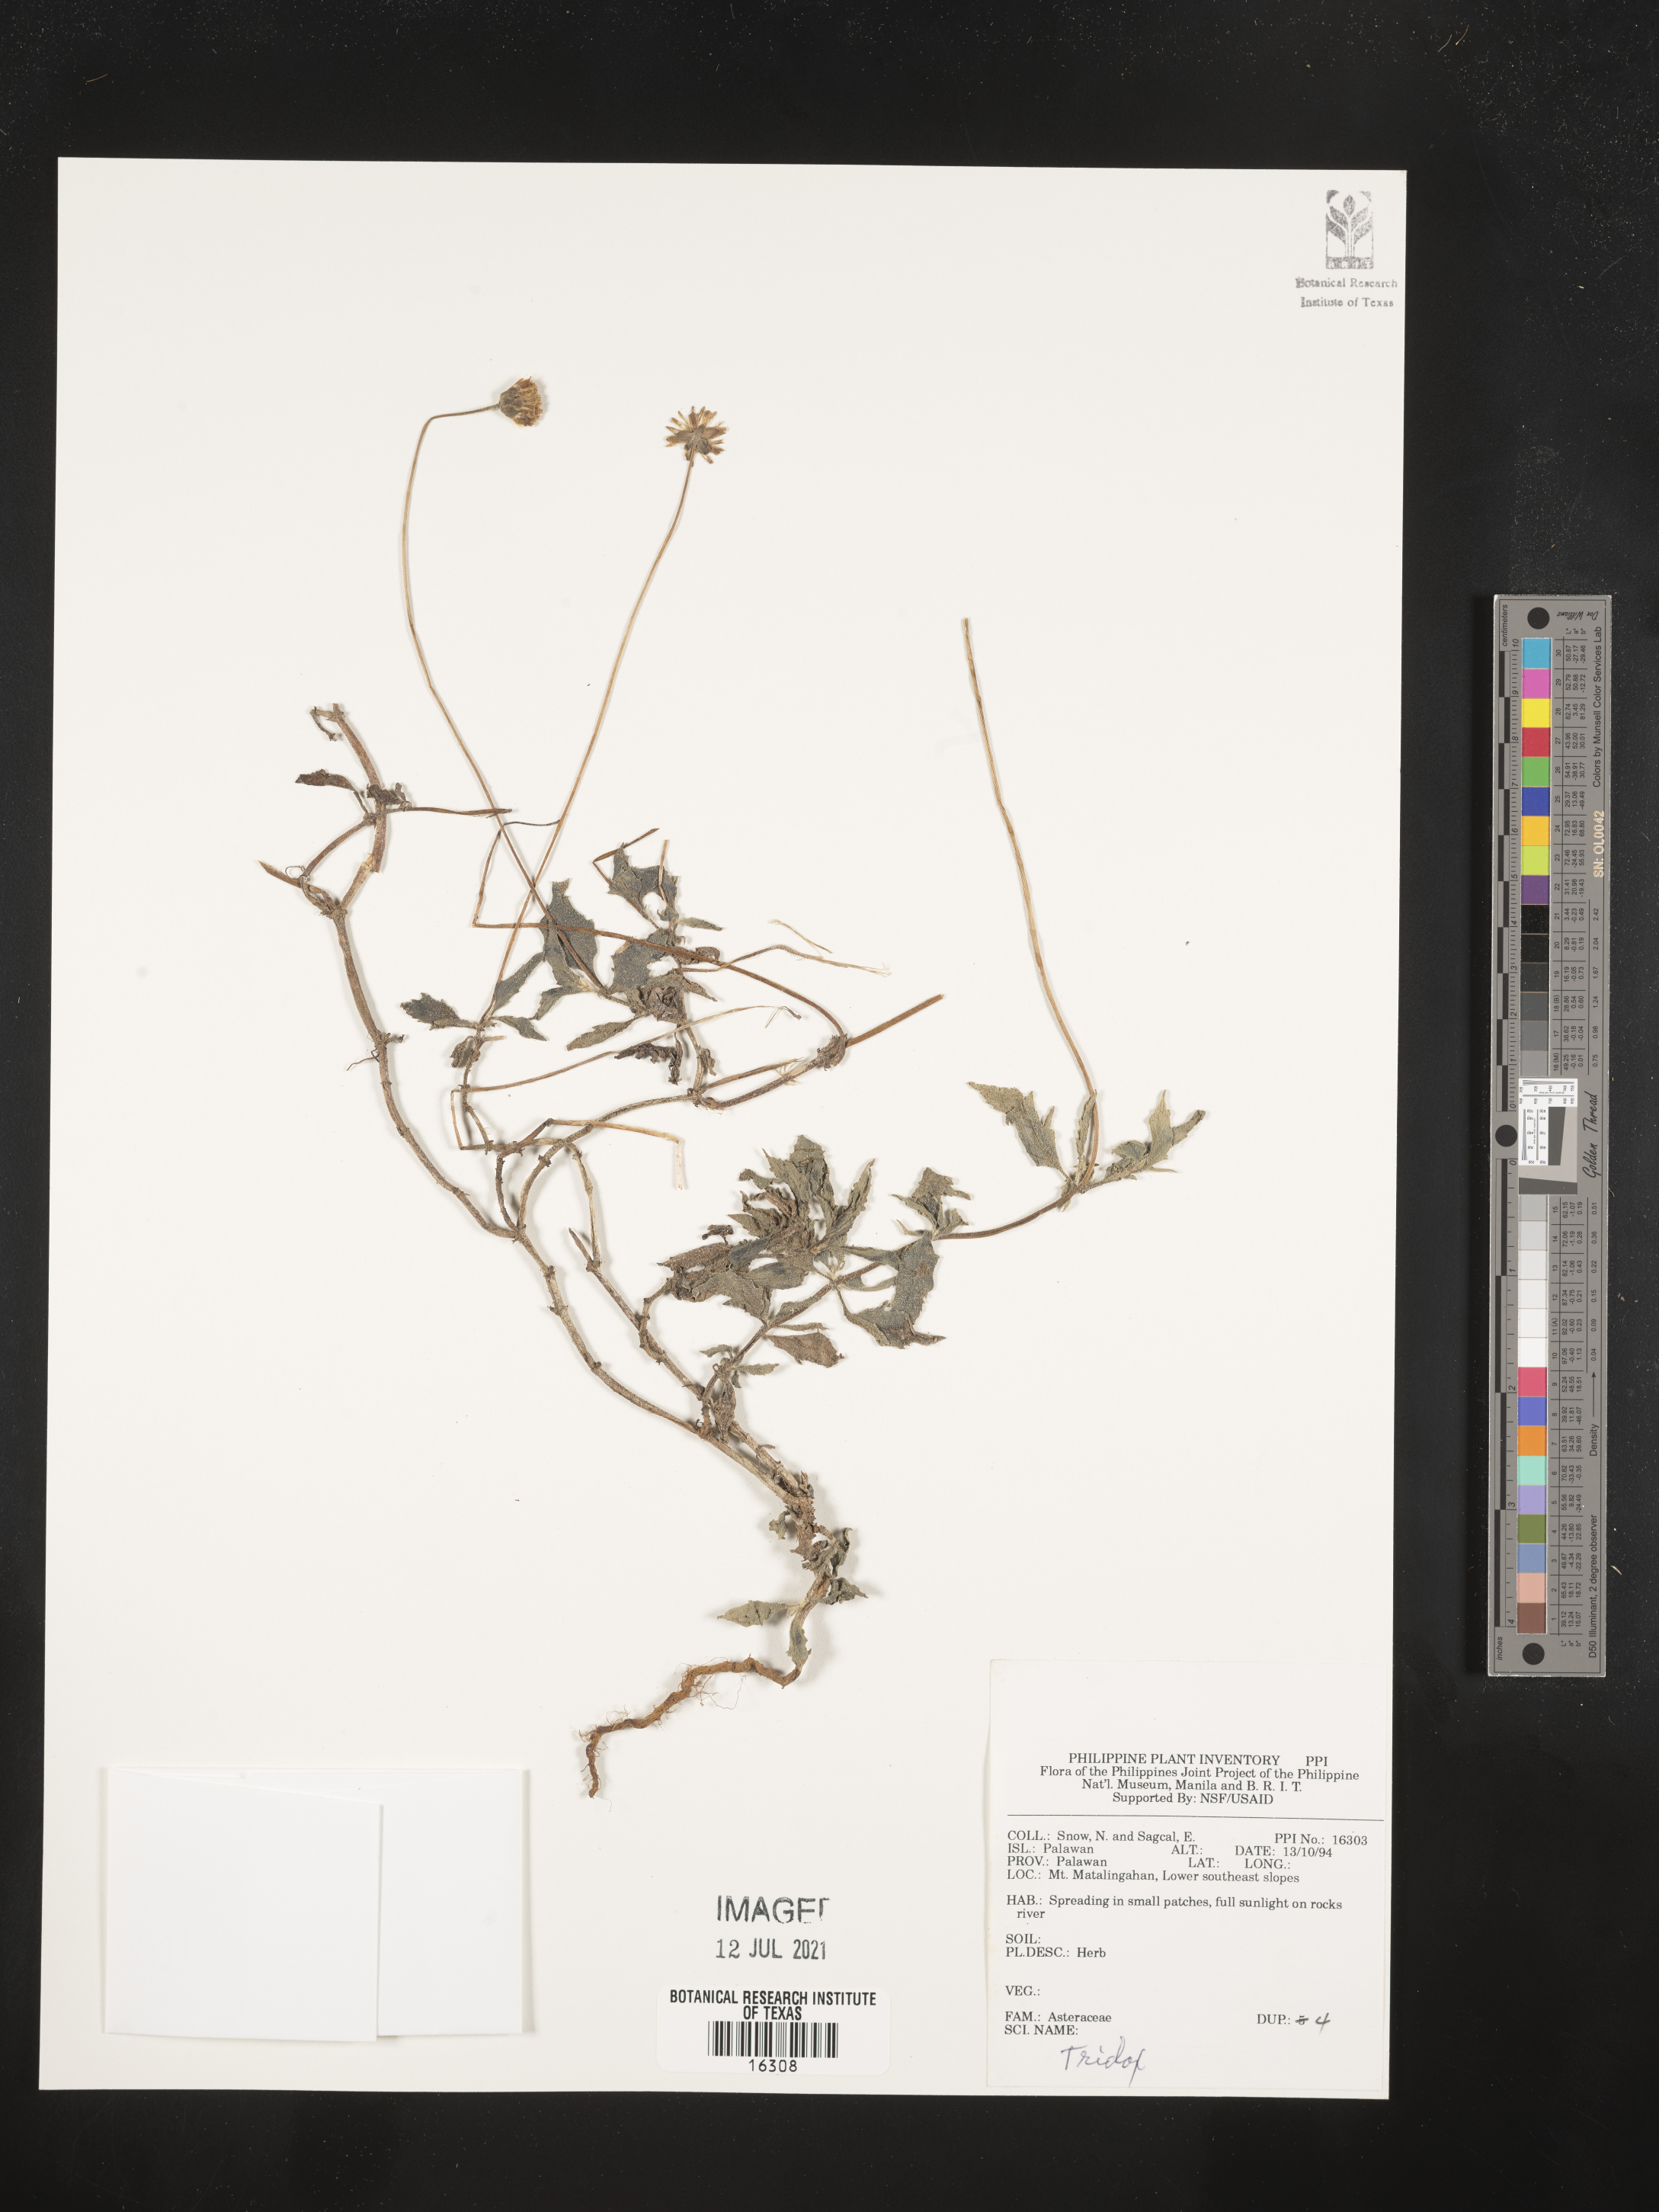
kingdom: Plantae
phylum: Tracheophyta
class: Magnoliopsida
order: Asterales
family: Asteraceae
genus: Tridax
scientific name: Tridax
